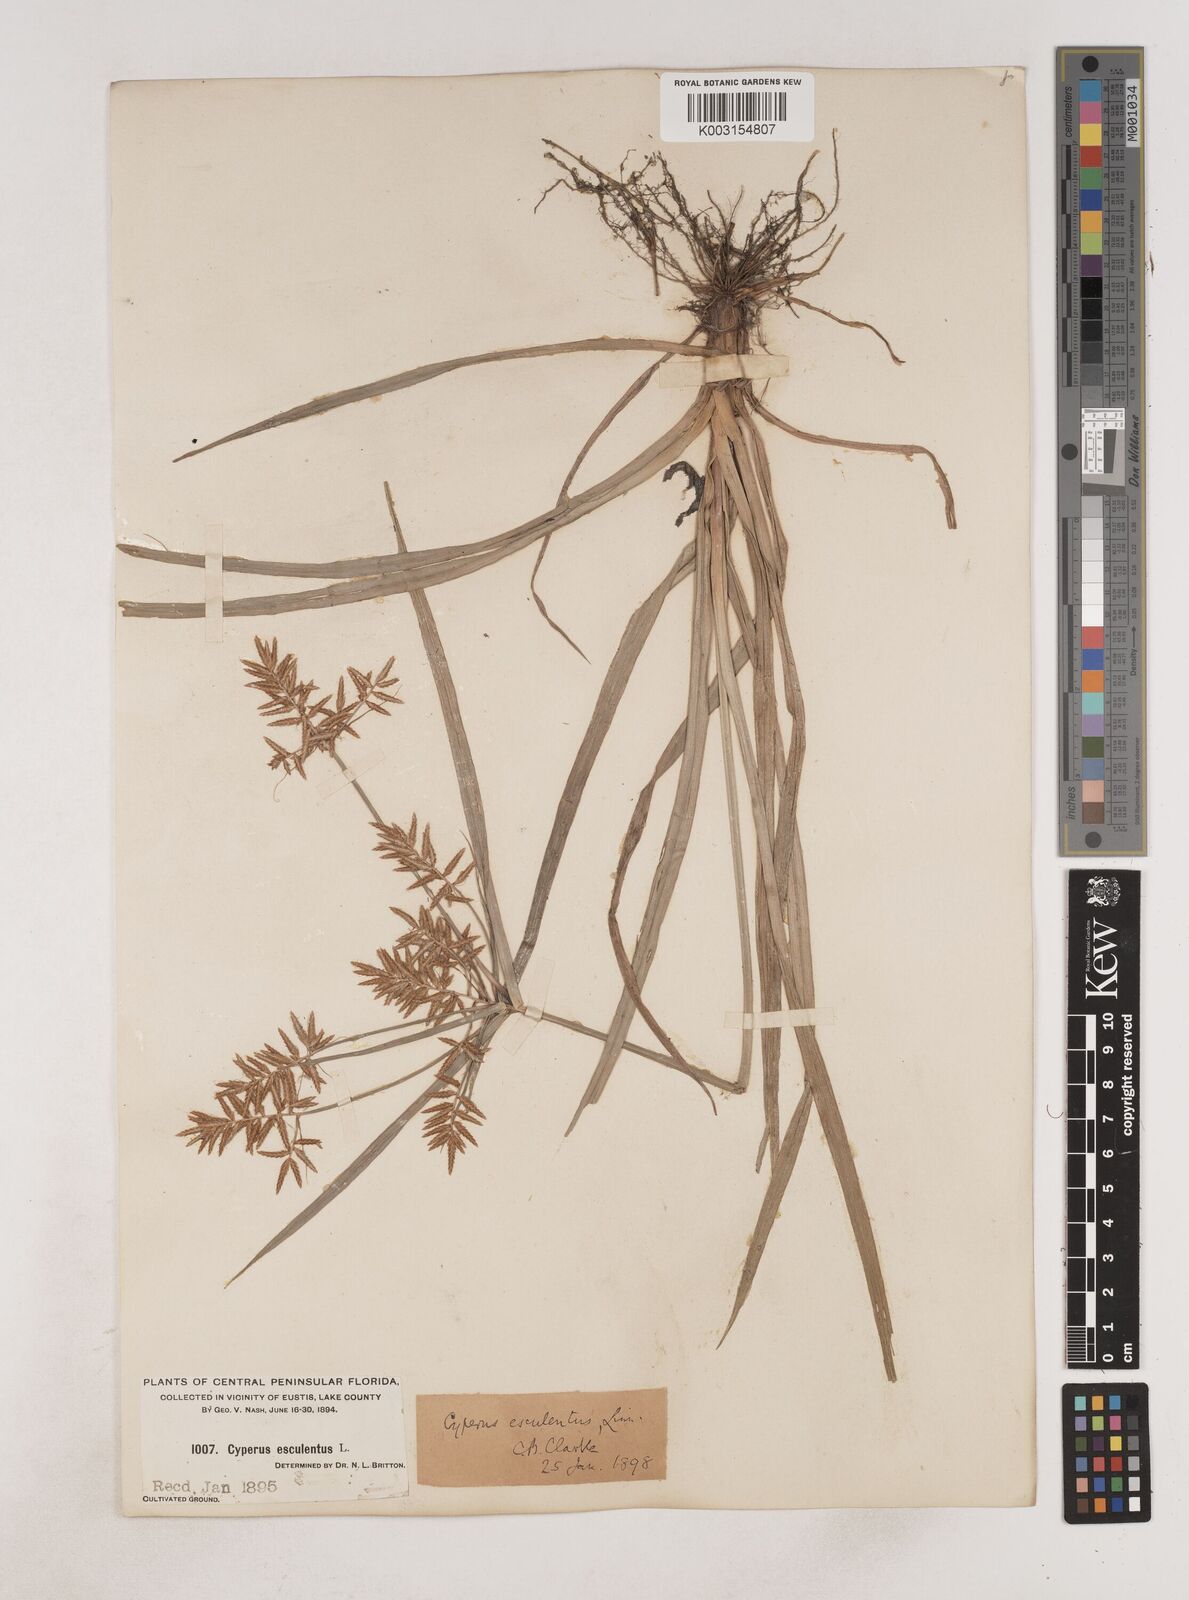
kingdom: Plantae
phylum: Tracheophyta
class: Liliopsida
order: Poales
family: Cyperaceae
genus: Cyperus
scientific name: Cyperus esculentus
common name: Yellow nutsedge
